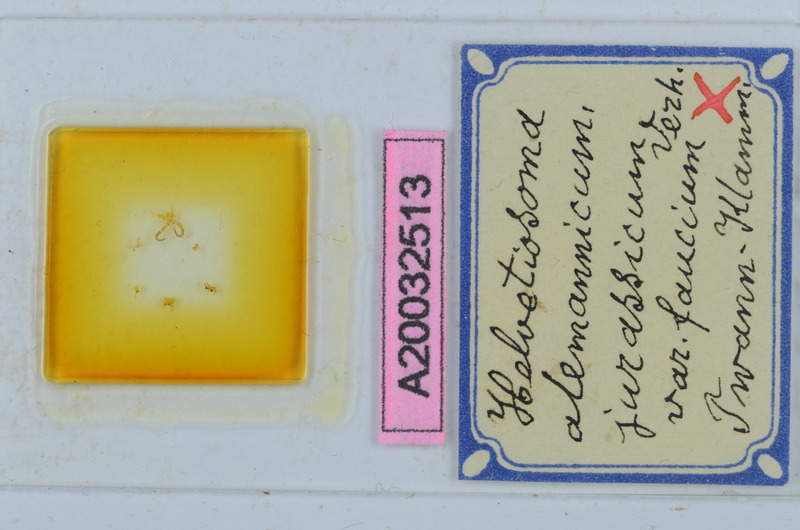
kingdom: Animalia
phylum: Arthropoda
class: Diplopoda
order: Chordeumatida
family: Craspedosomatidae
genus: Helvetiosoma
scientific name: Helvetiosoma helveticum
